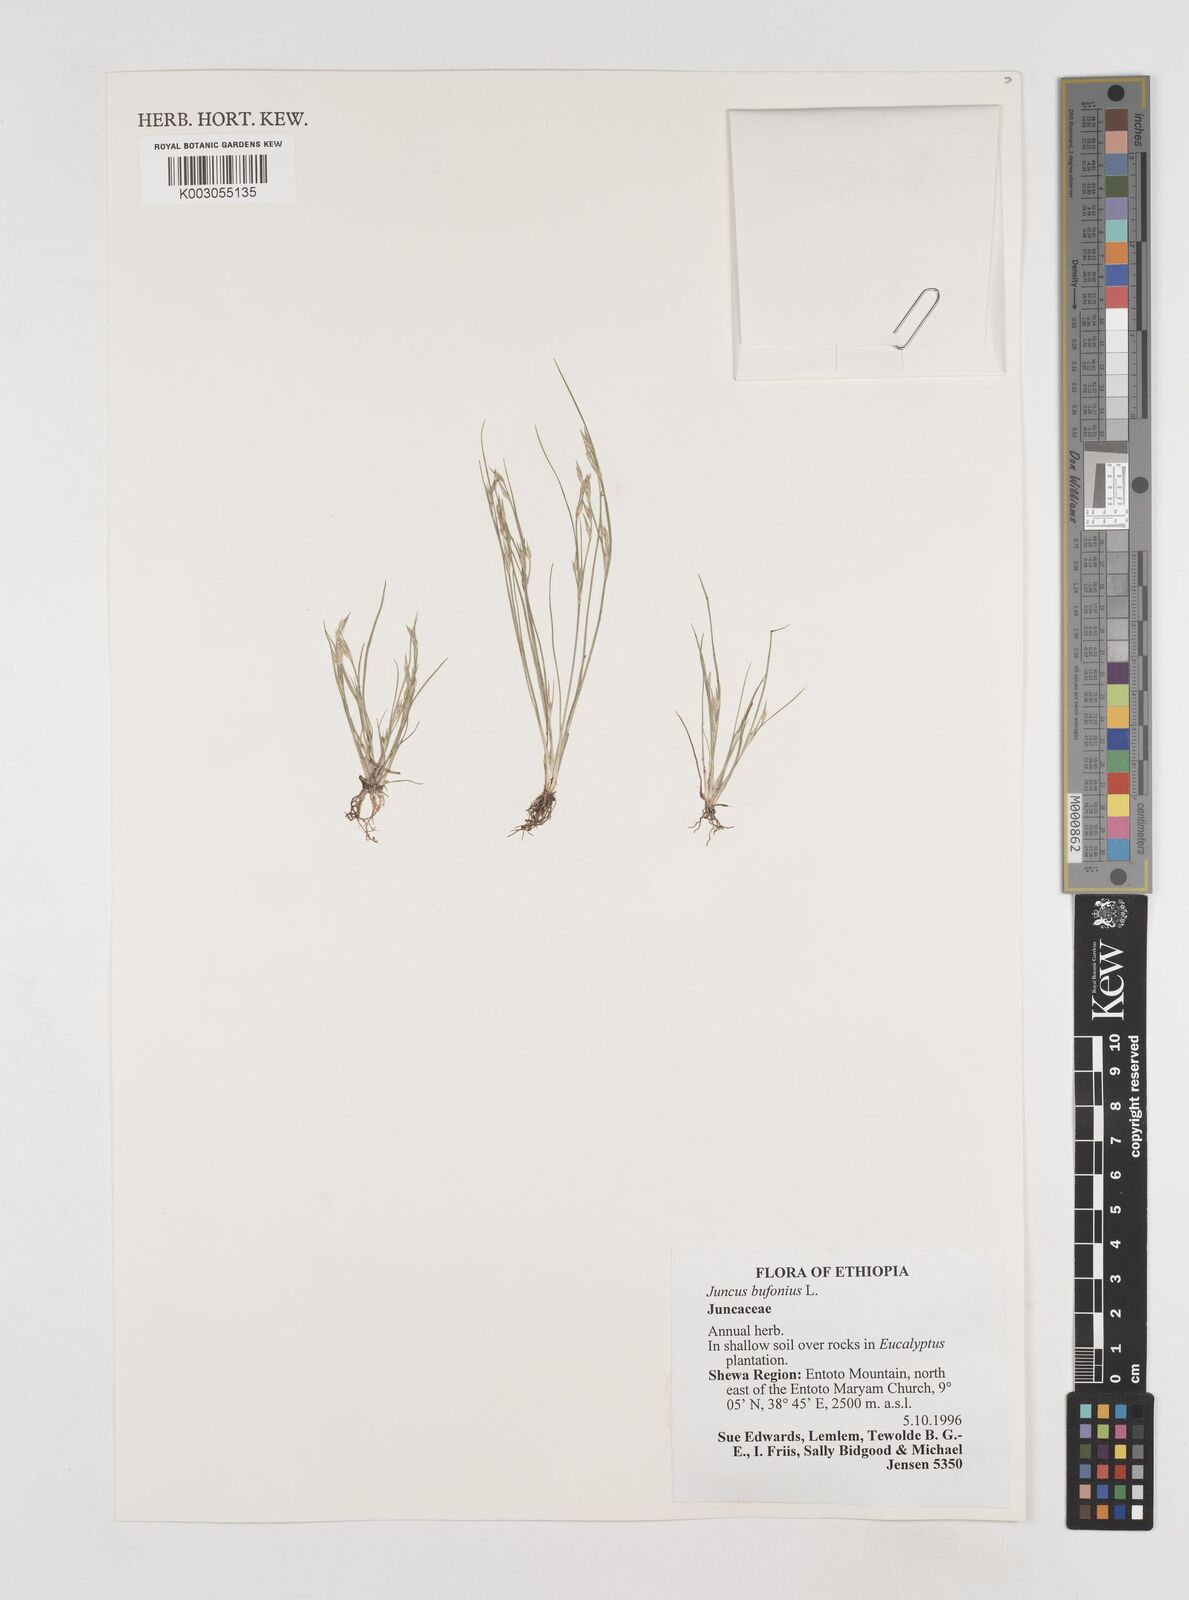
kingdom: Plantae
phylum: Tracheophyta
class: Liliopsida
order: Poales
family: Juncaceae
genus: Juncus
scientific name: Juncus bufonius
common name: Toad rush
